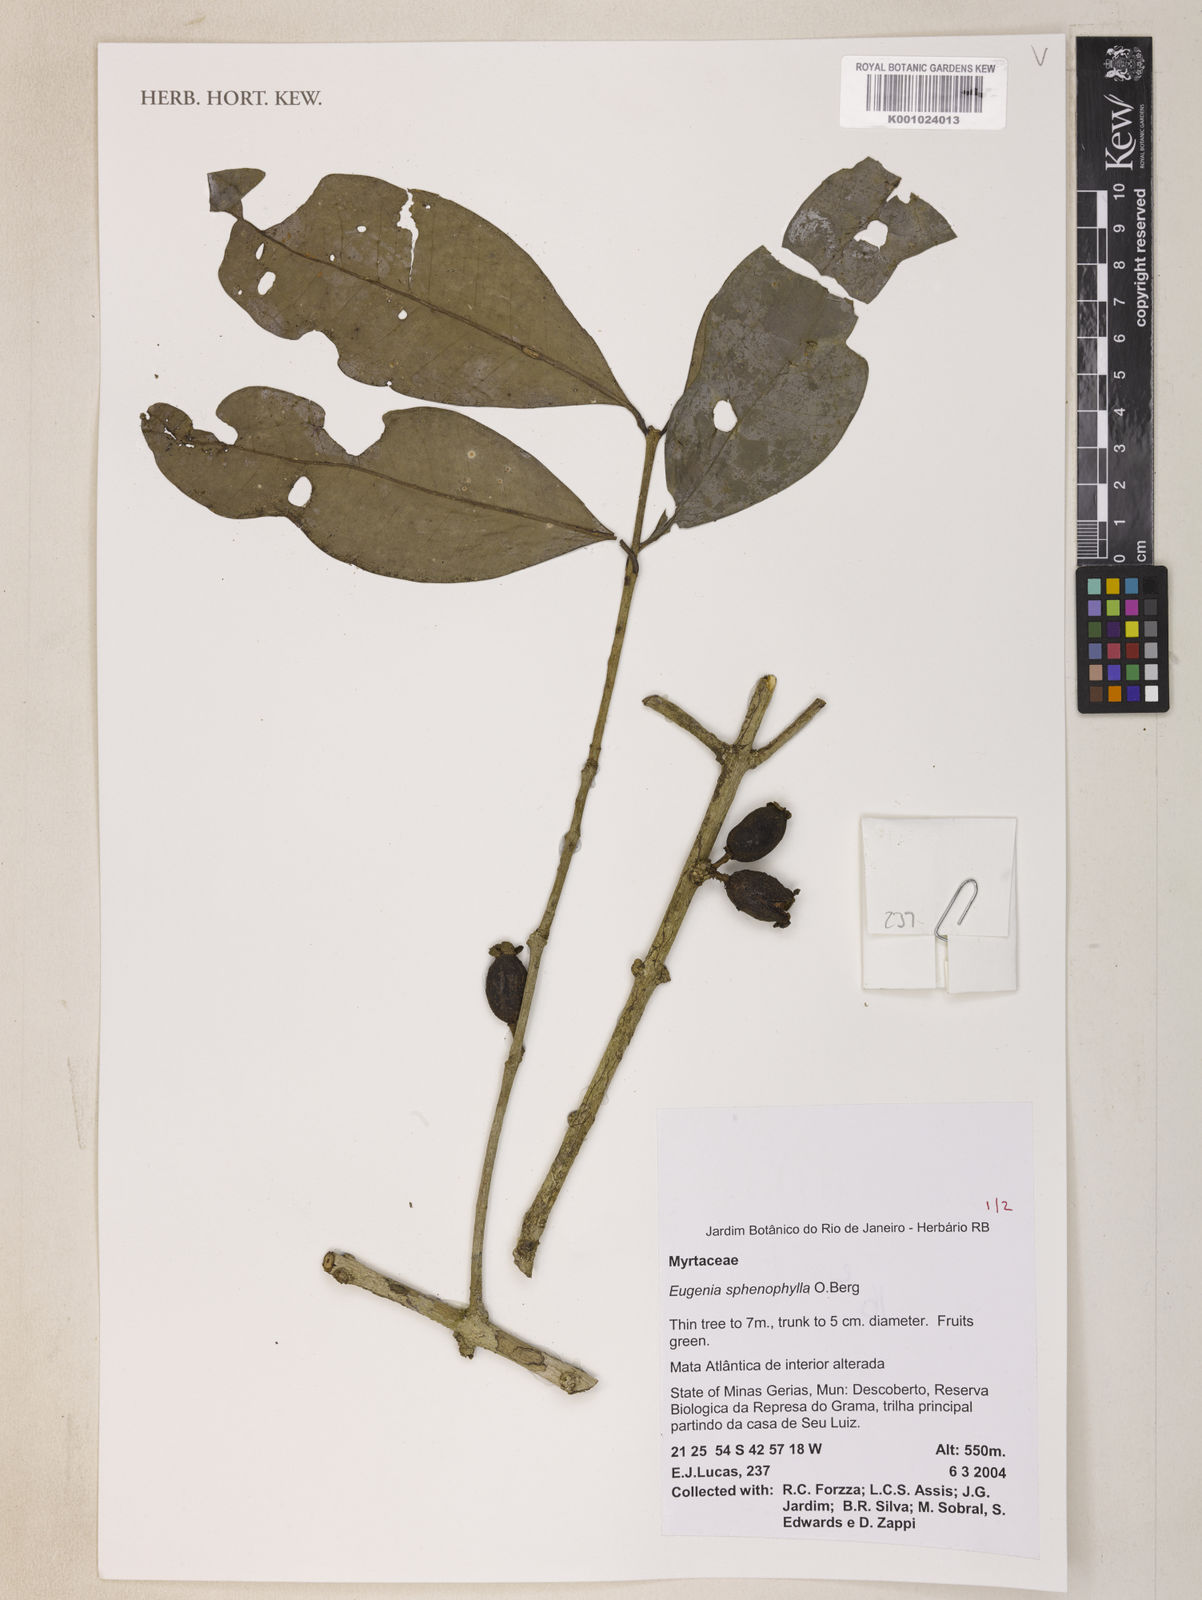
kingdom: Plantae
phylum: Tracheophyta
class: Magnoliopsida
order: Myrtales
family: Myrtaceae
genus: Eugenia
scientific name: Eugenia dodonaeifolia
